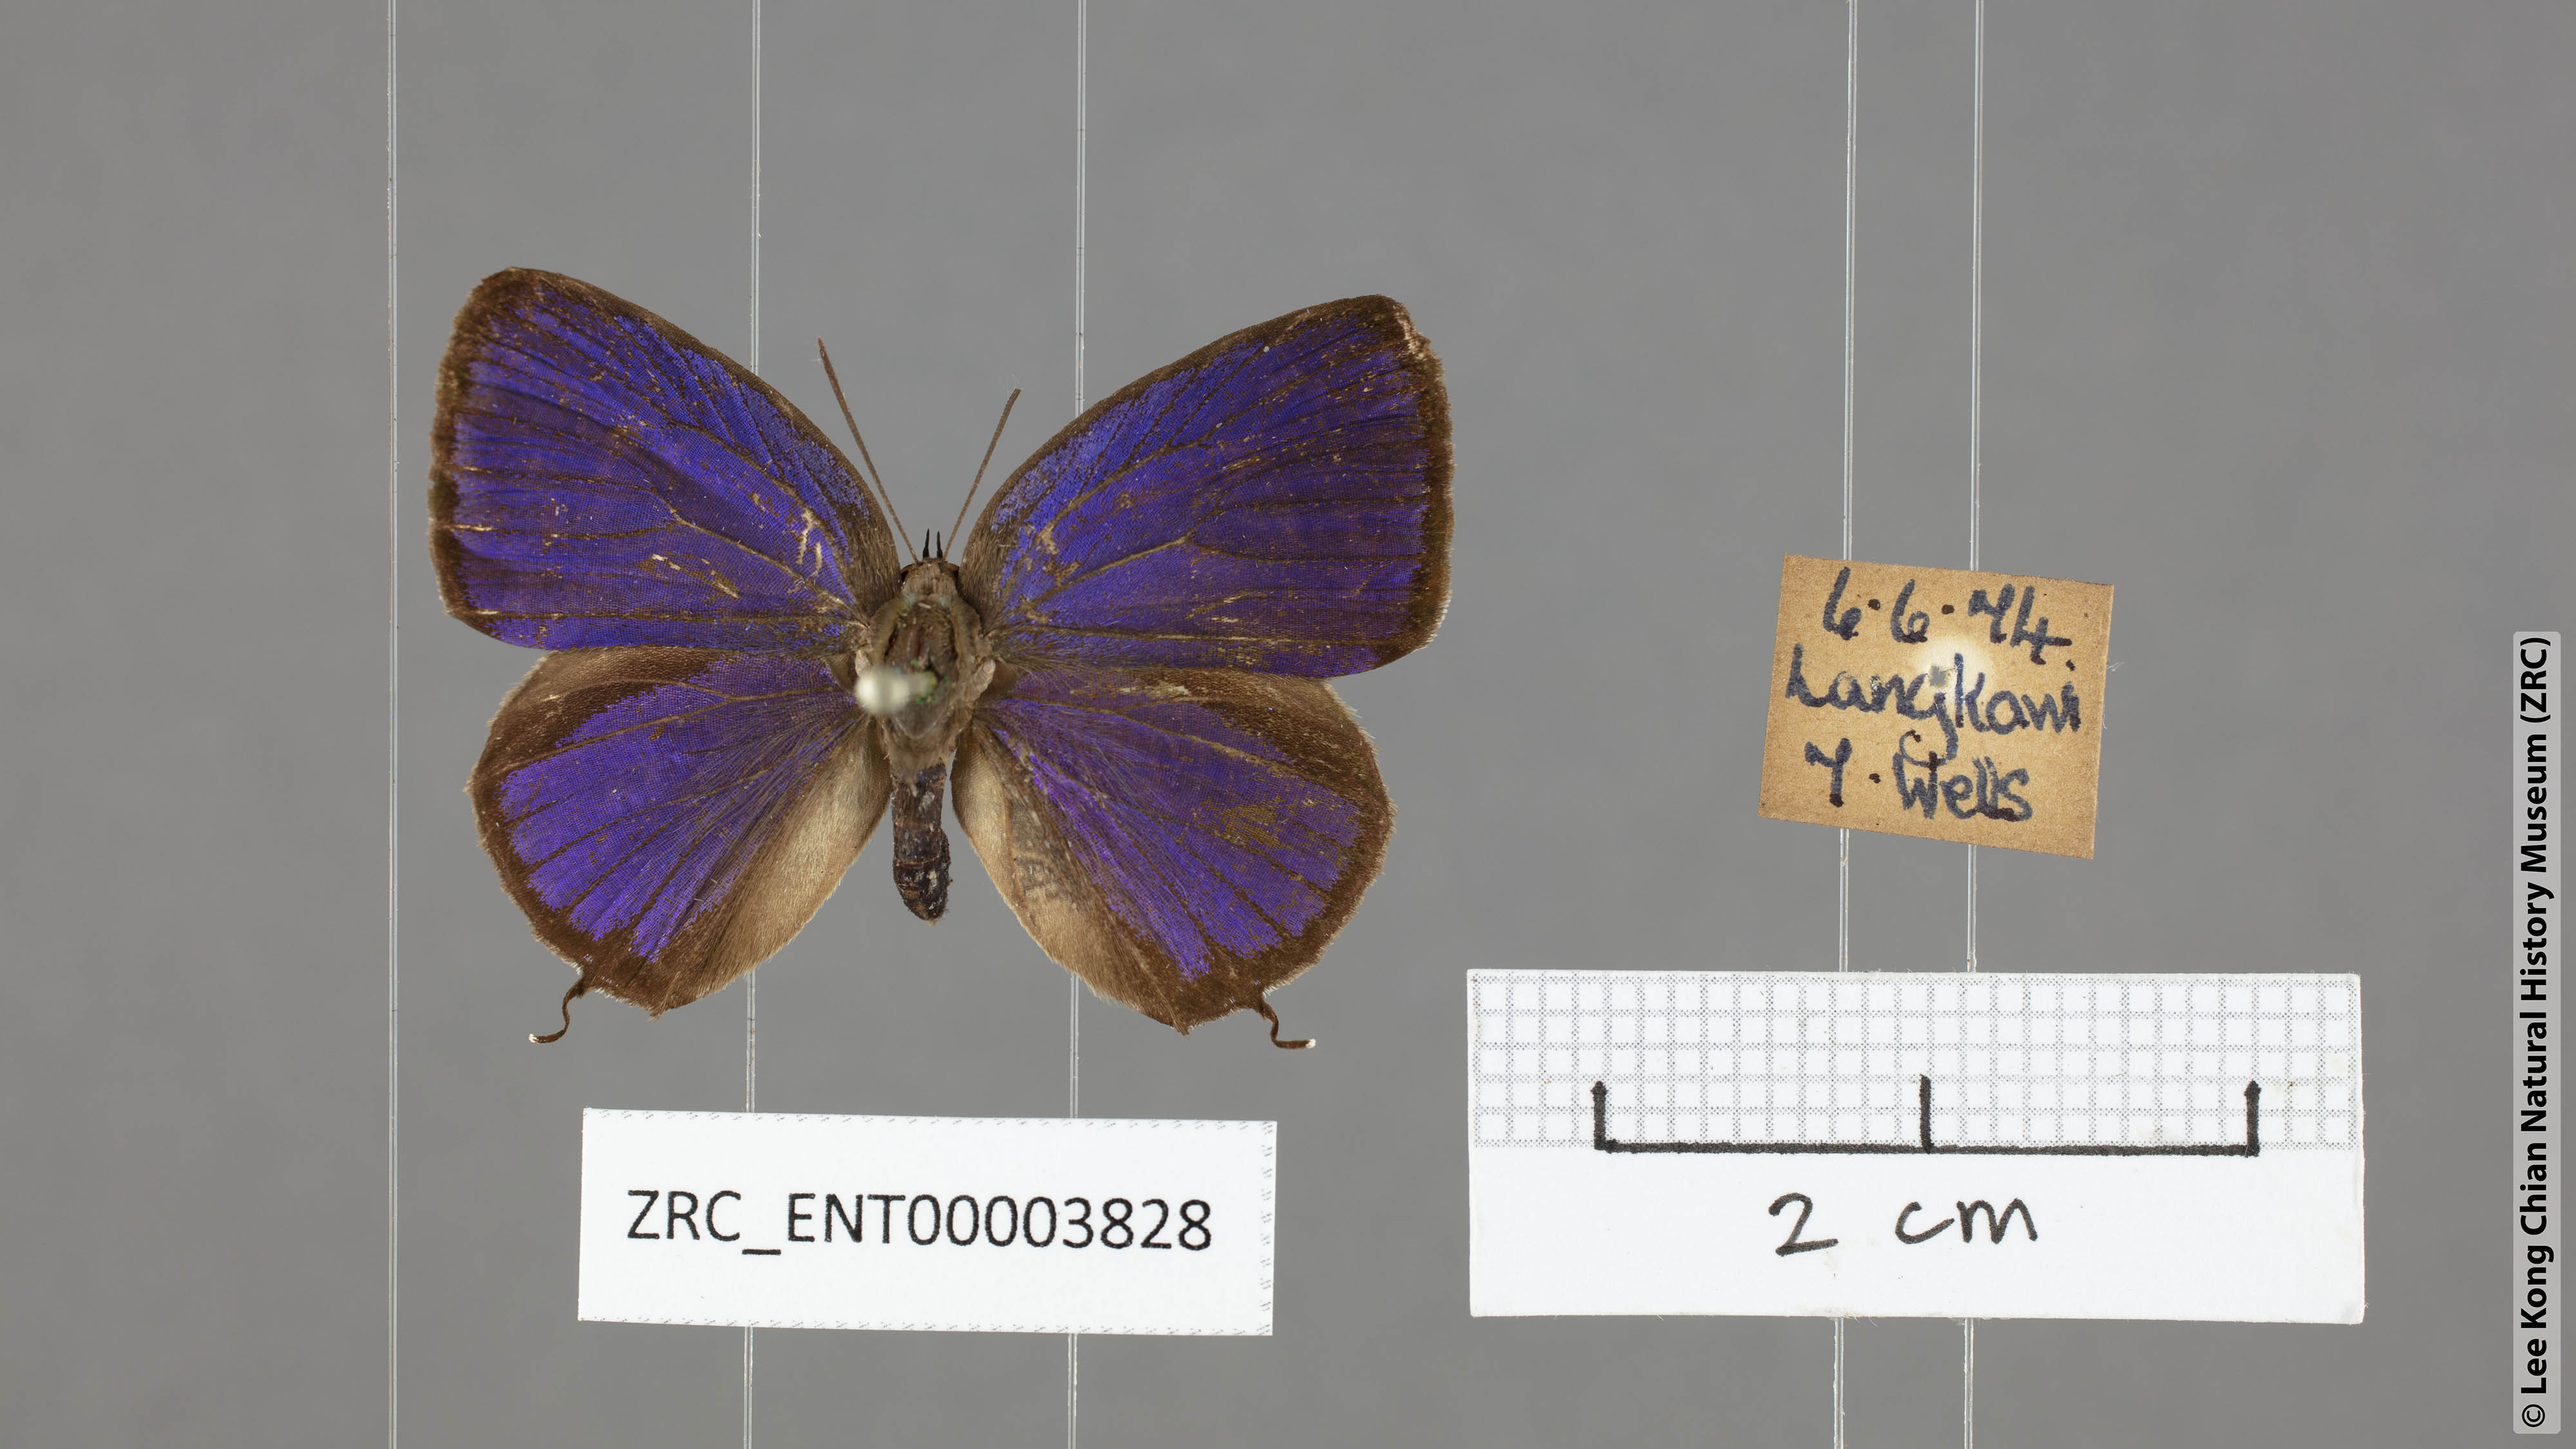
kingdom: Animalia
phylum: Arthropoda
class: Insecta
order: Lepidoptera
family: Lycaenidae
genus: Arhopala
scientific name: Arhopala alitaeus
